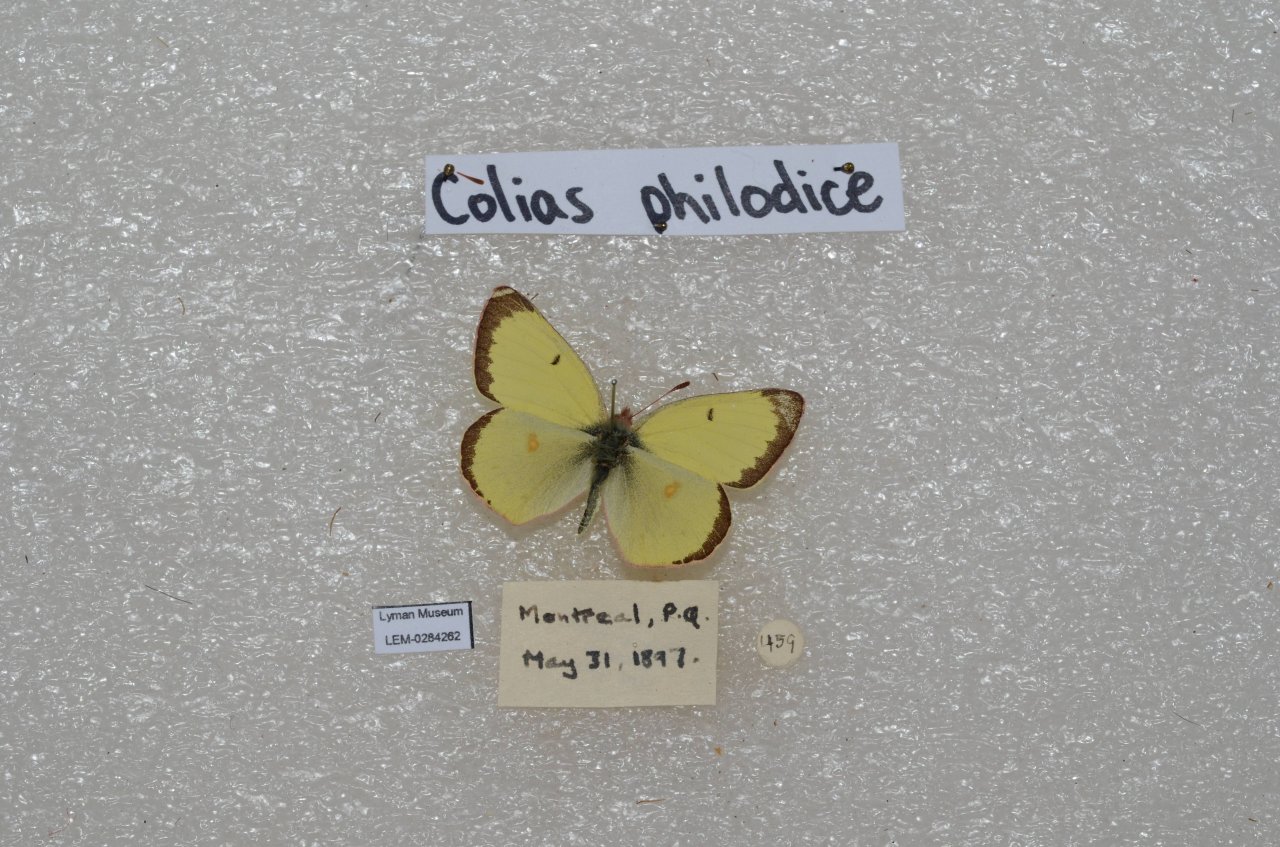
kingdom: Animalia
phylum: Arthropoda
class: Insecta
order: Lepidoptera
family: Pieridae
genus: Colias
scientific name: Colias philodice
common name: Clouded Sulphur
